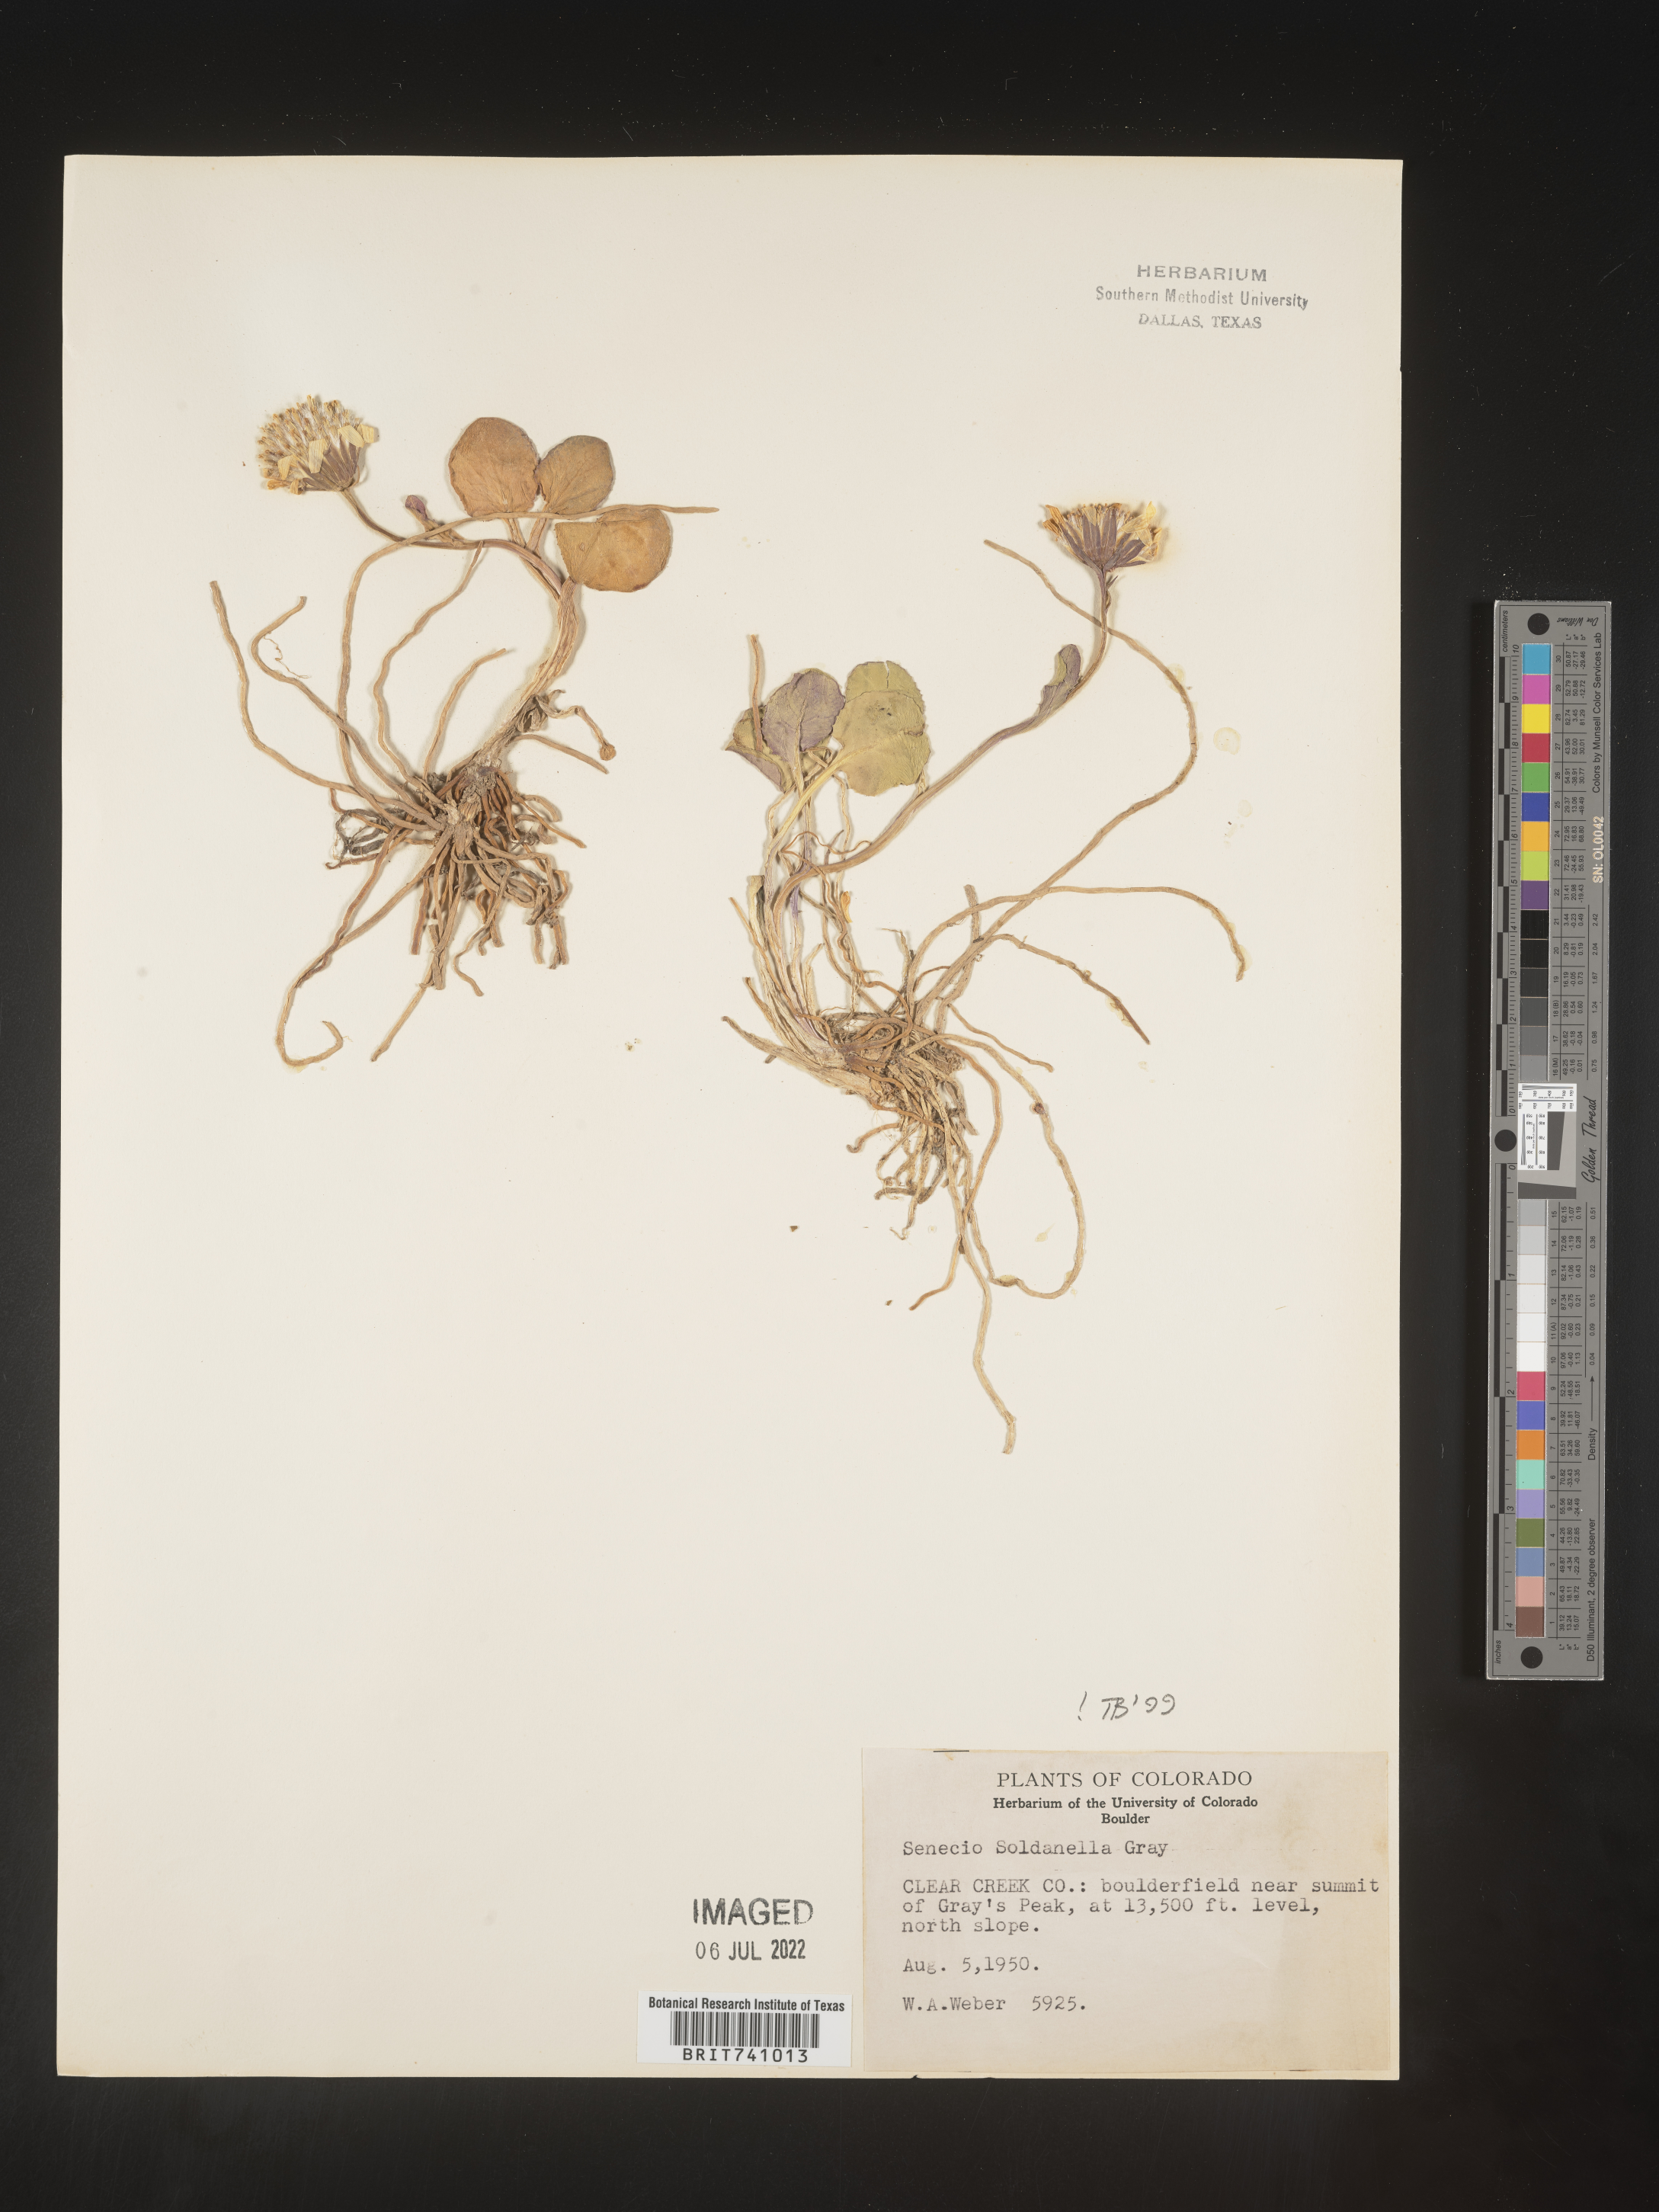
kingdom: Plantae
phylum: Tracheophyta
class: Magnoliopsida
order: Asterales
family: Asteraceae
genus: Senecio
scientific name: Senecio soldanella
